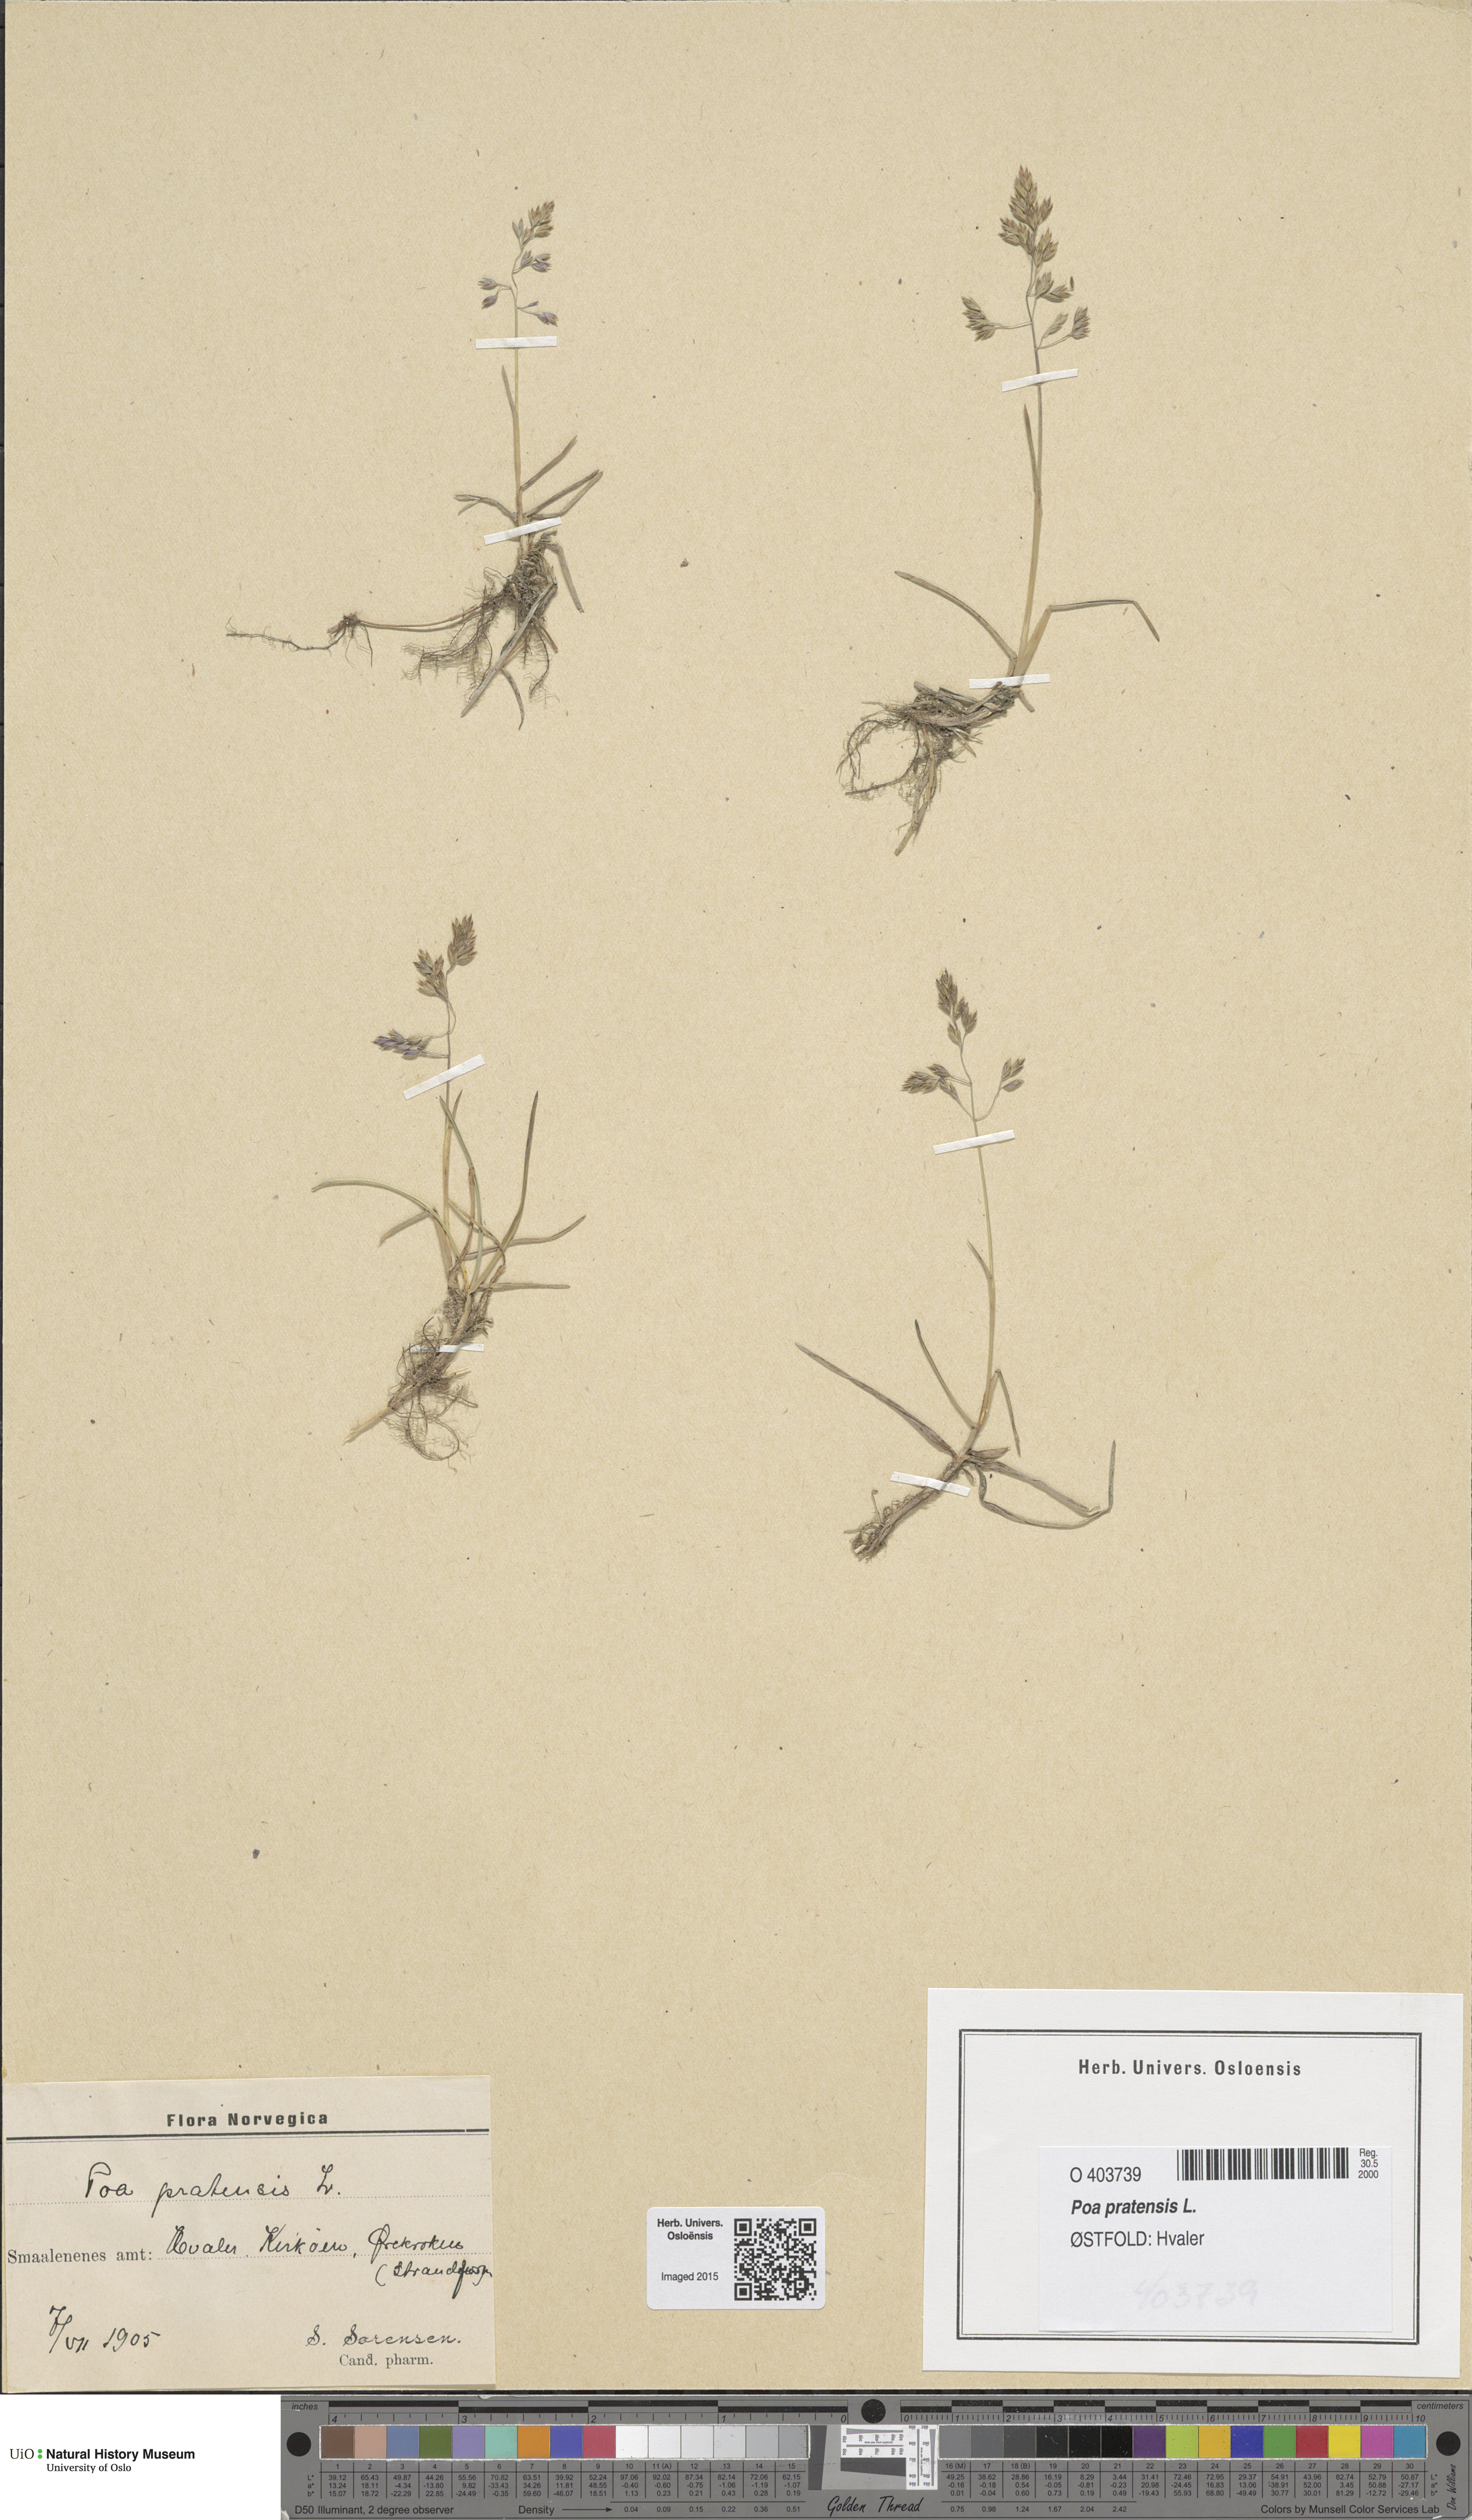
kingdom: Plantae
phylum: Tracheophyta
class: Liliopsida
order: Poales
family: Poaceae
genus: Poa
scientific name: Poa pratensis
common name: Kentucky bluegrass
